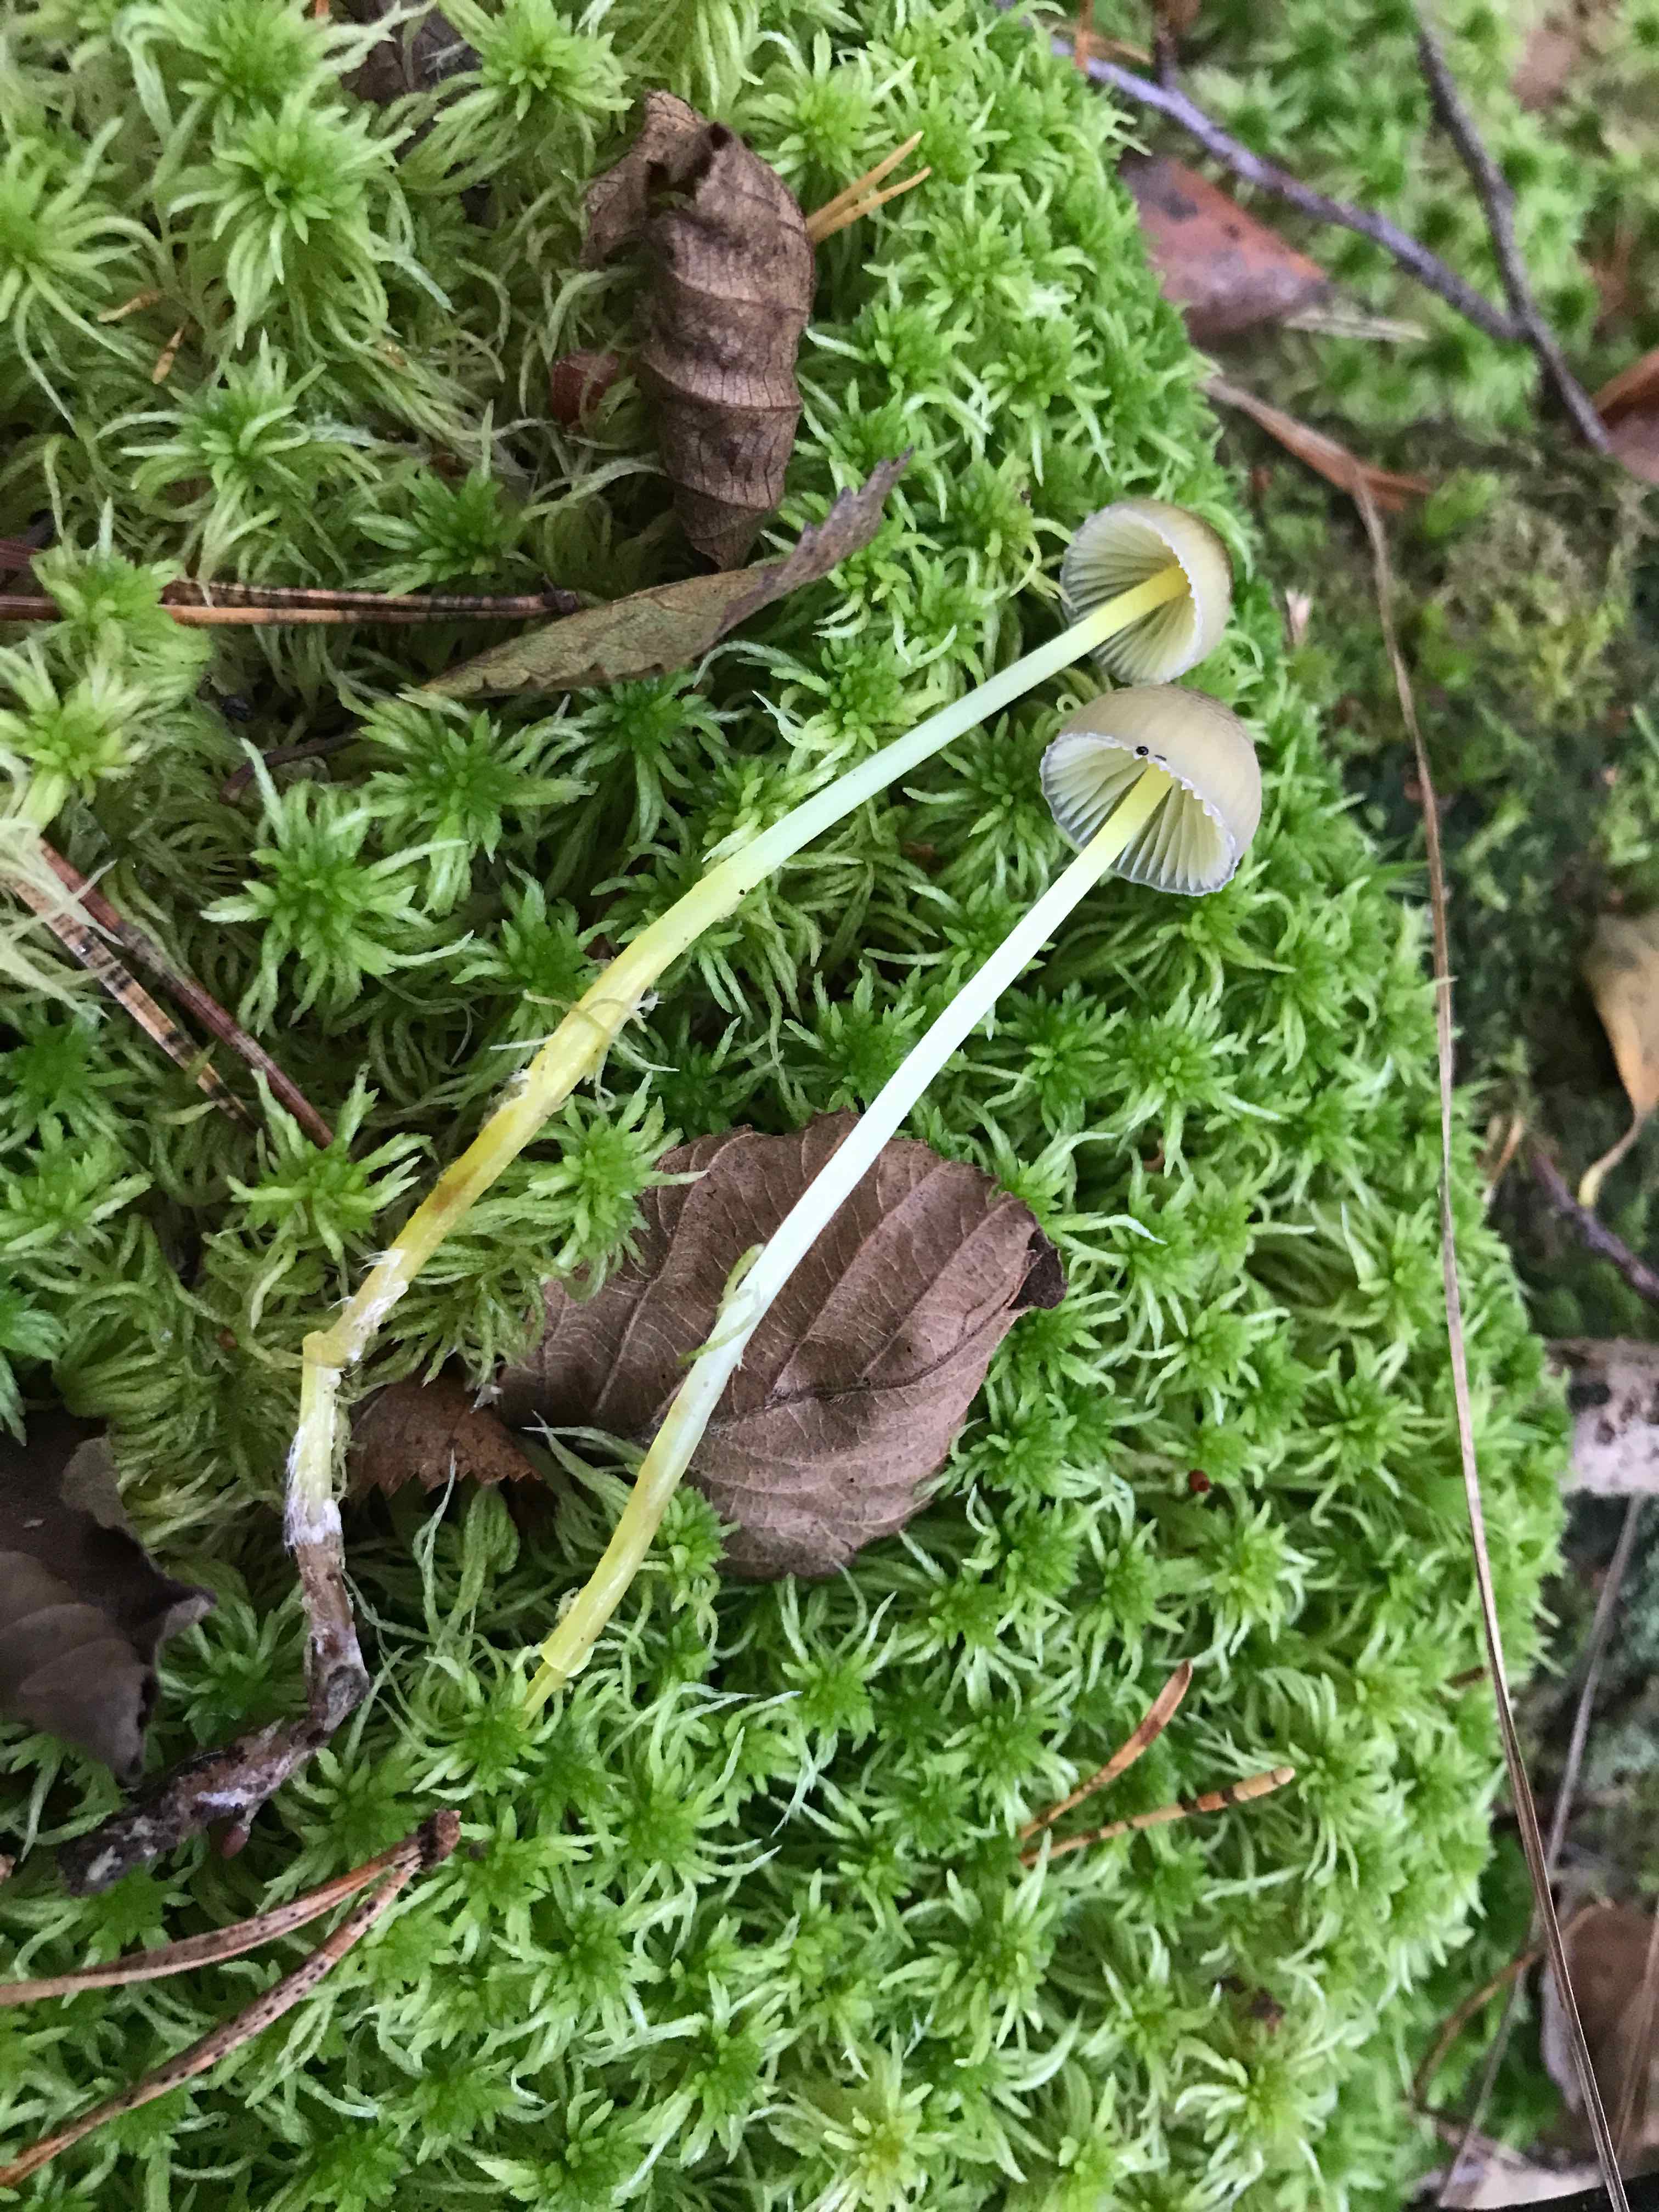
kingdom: Fungi
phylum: Basidiomycota
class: Agaricomycetes
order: Agaricales
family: Mycenaceae
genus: Mycena
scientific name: Mycena epipterygia
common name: gulstokket huesvamp
